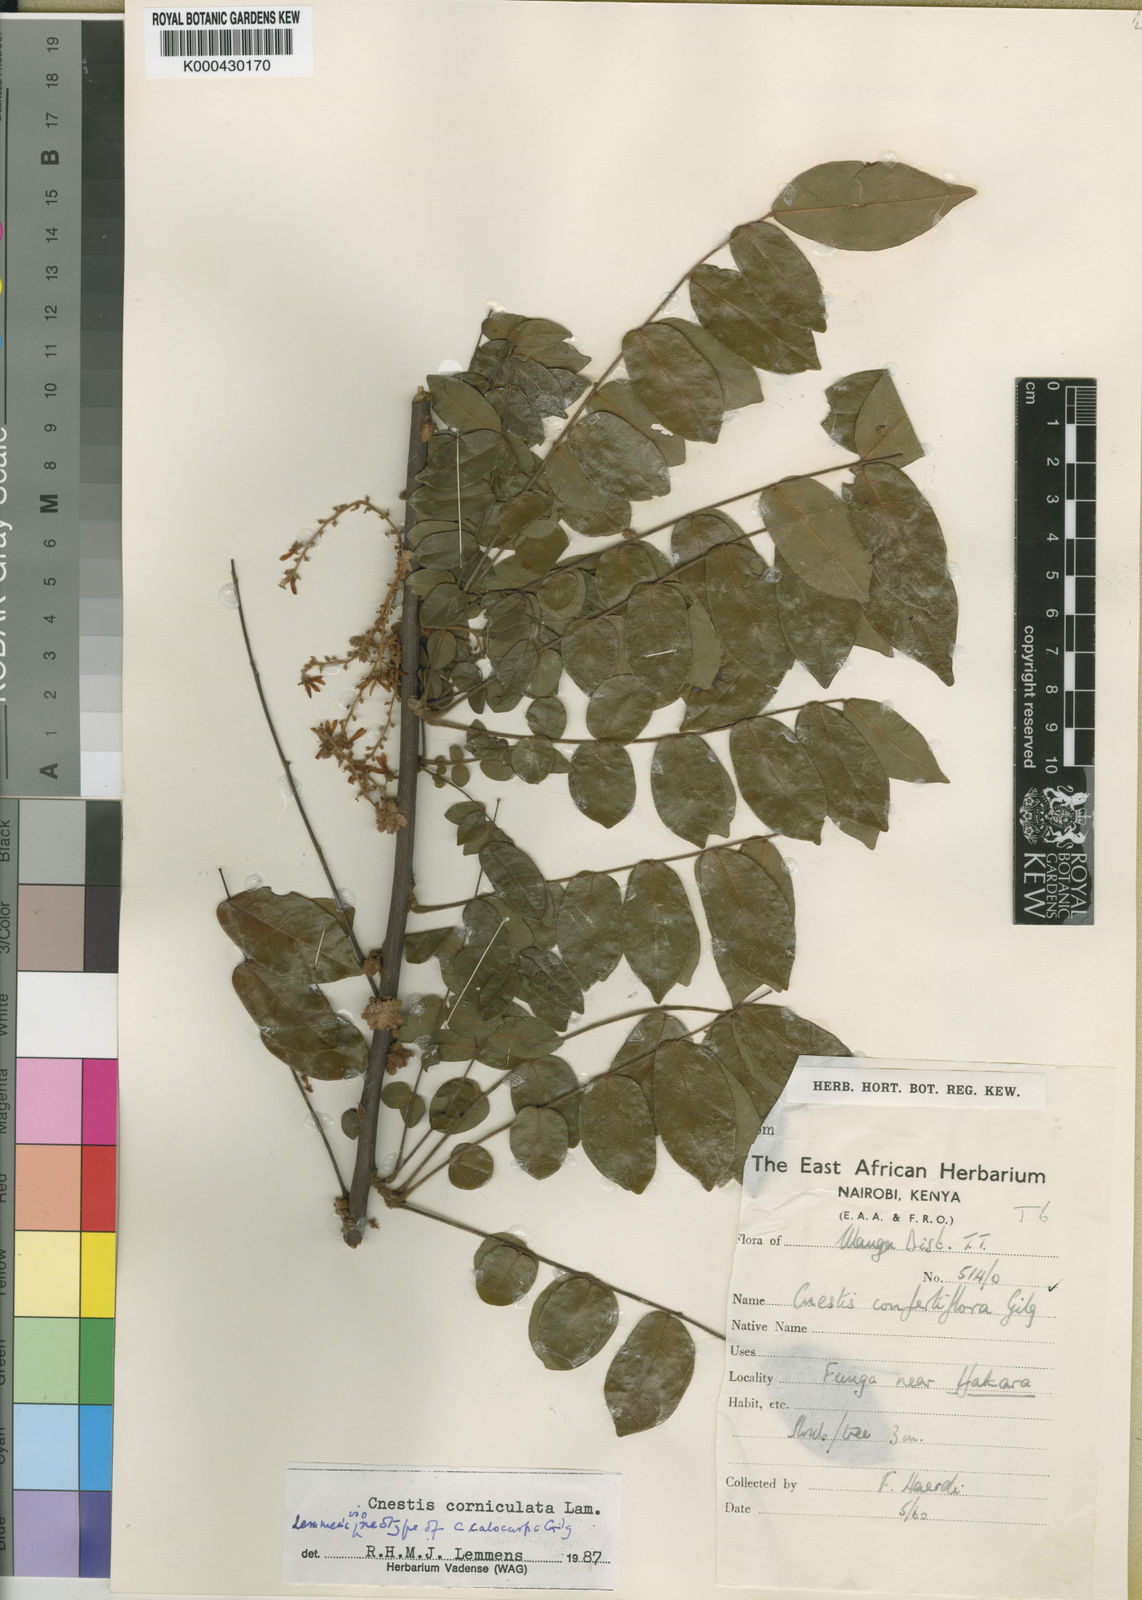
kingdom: Plantae
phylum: Tracheophyta
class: Magnoliopsida
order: Oxalidales
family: Connaraceae
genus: Cnestis
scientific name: Cnestis corniculata
